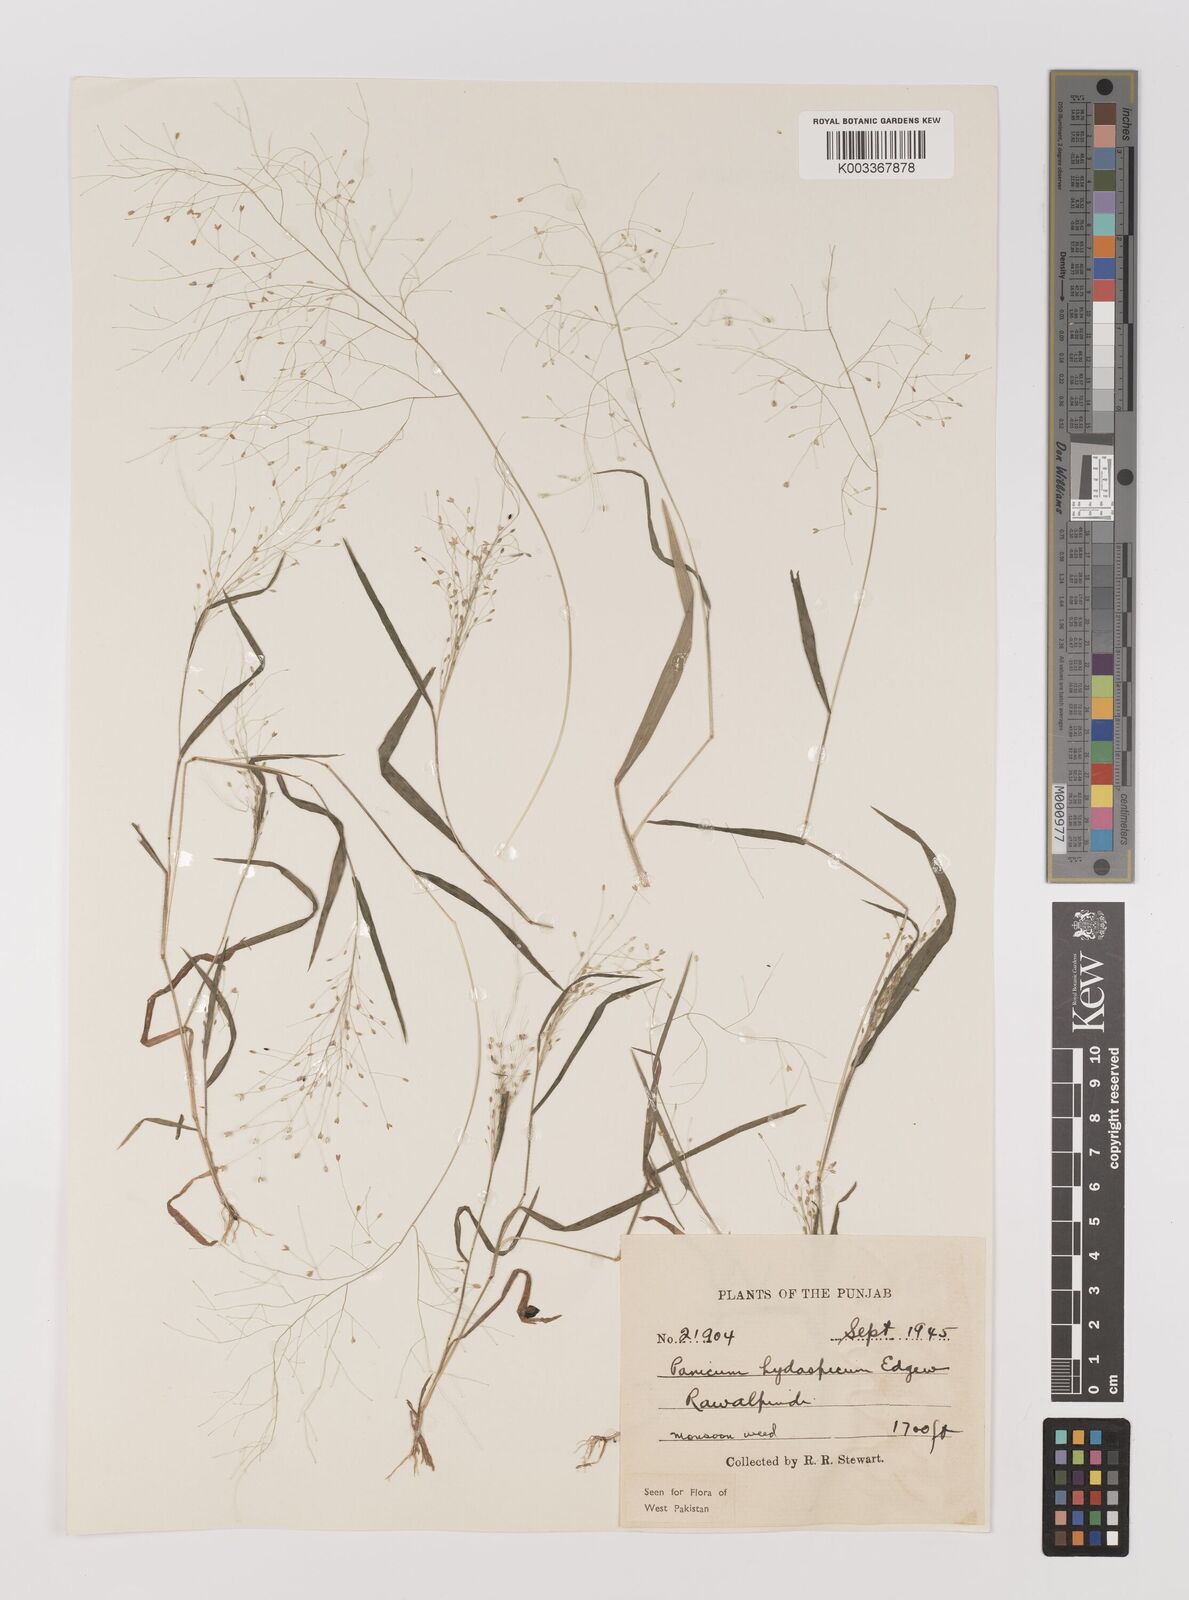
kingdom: Plantae
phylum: Tracheophyta
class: Liliopsida
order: Poales
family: Poaceae
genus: Panicum
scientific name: Panicum atrosanguineum
